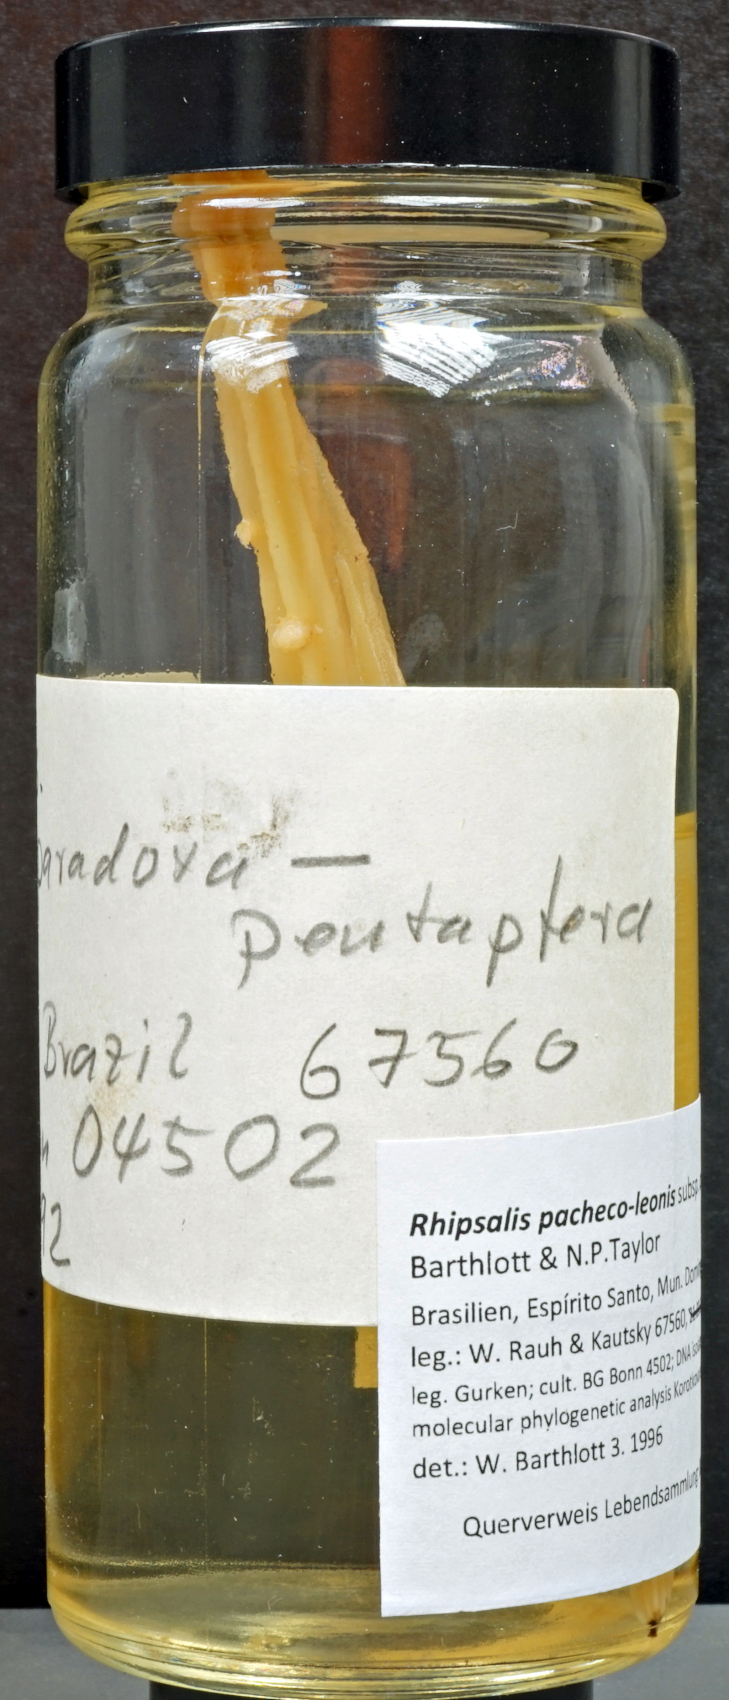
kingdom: Plantae
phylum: Tracheophyta
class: Magnoliopsida
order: Caryophyllales
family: Cactaceae
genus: Rhipsalis
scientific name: Rhipsalis pacheco-leonis
